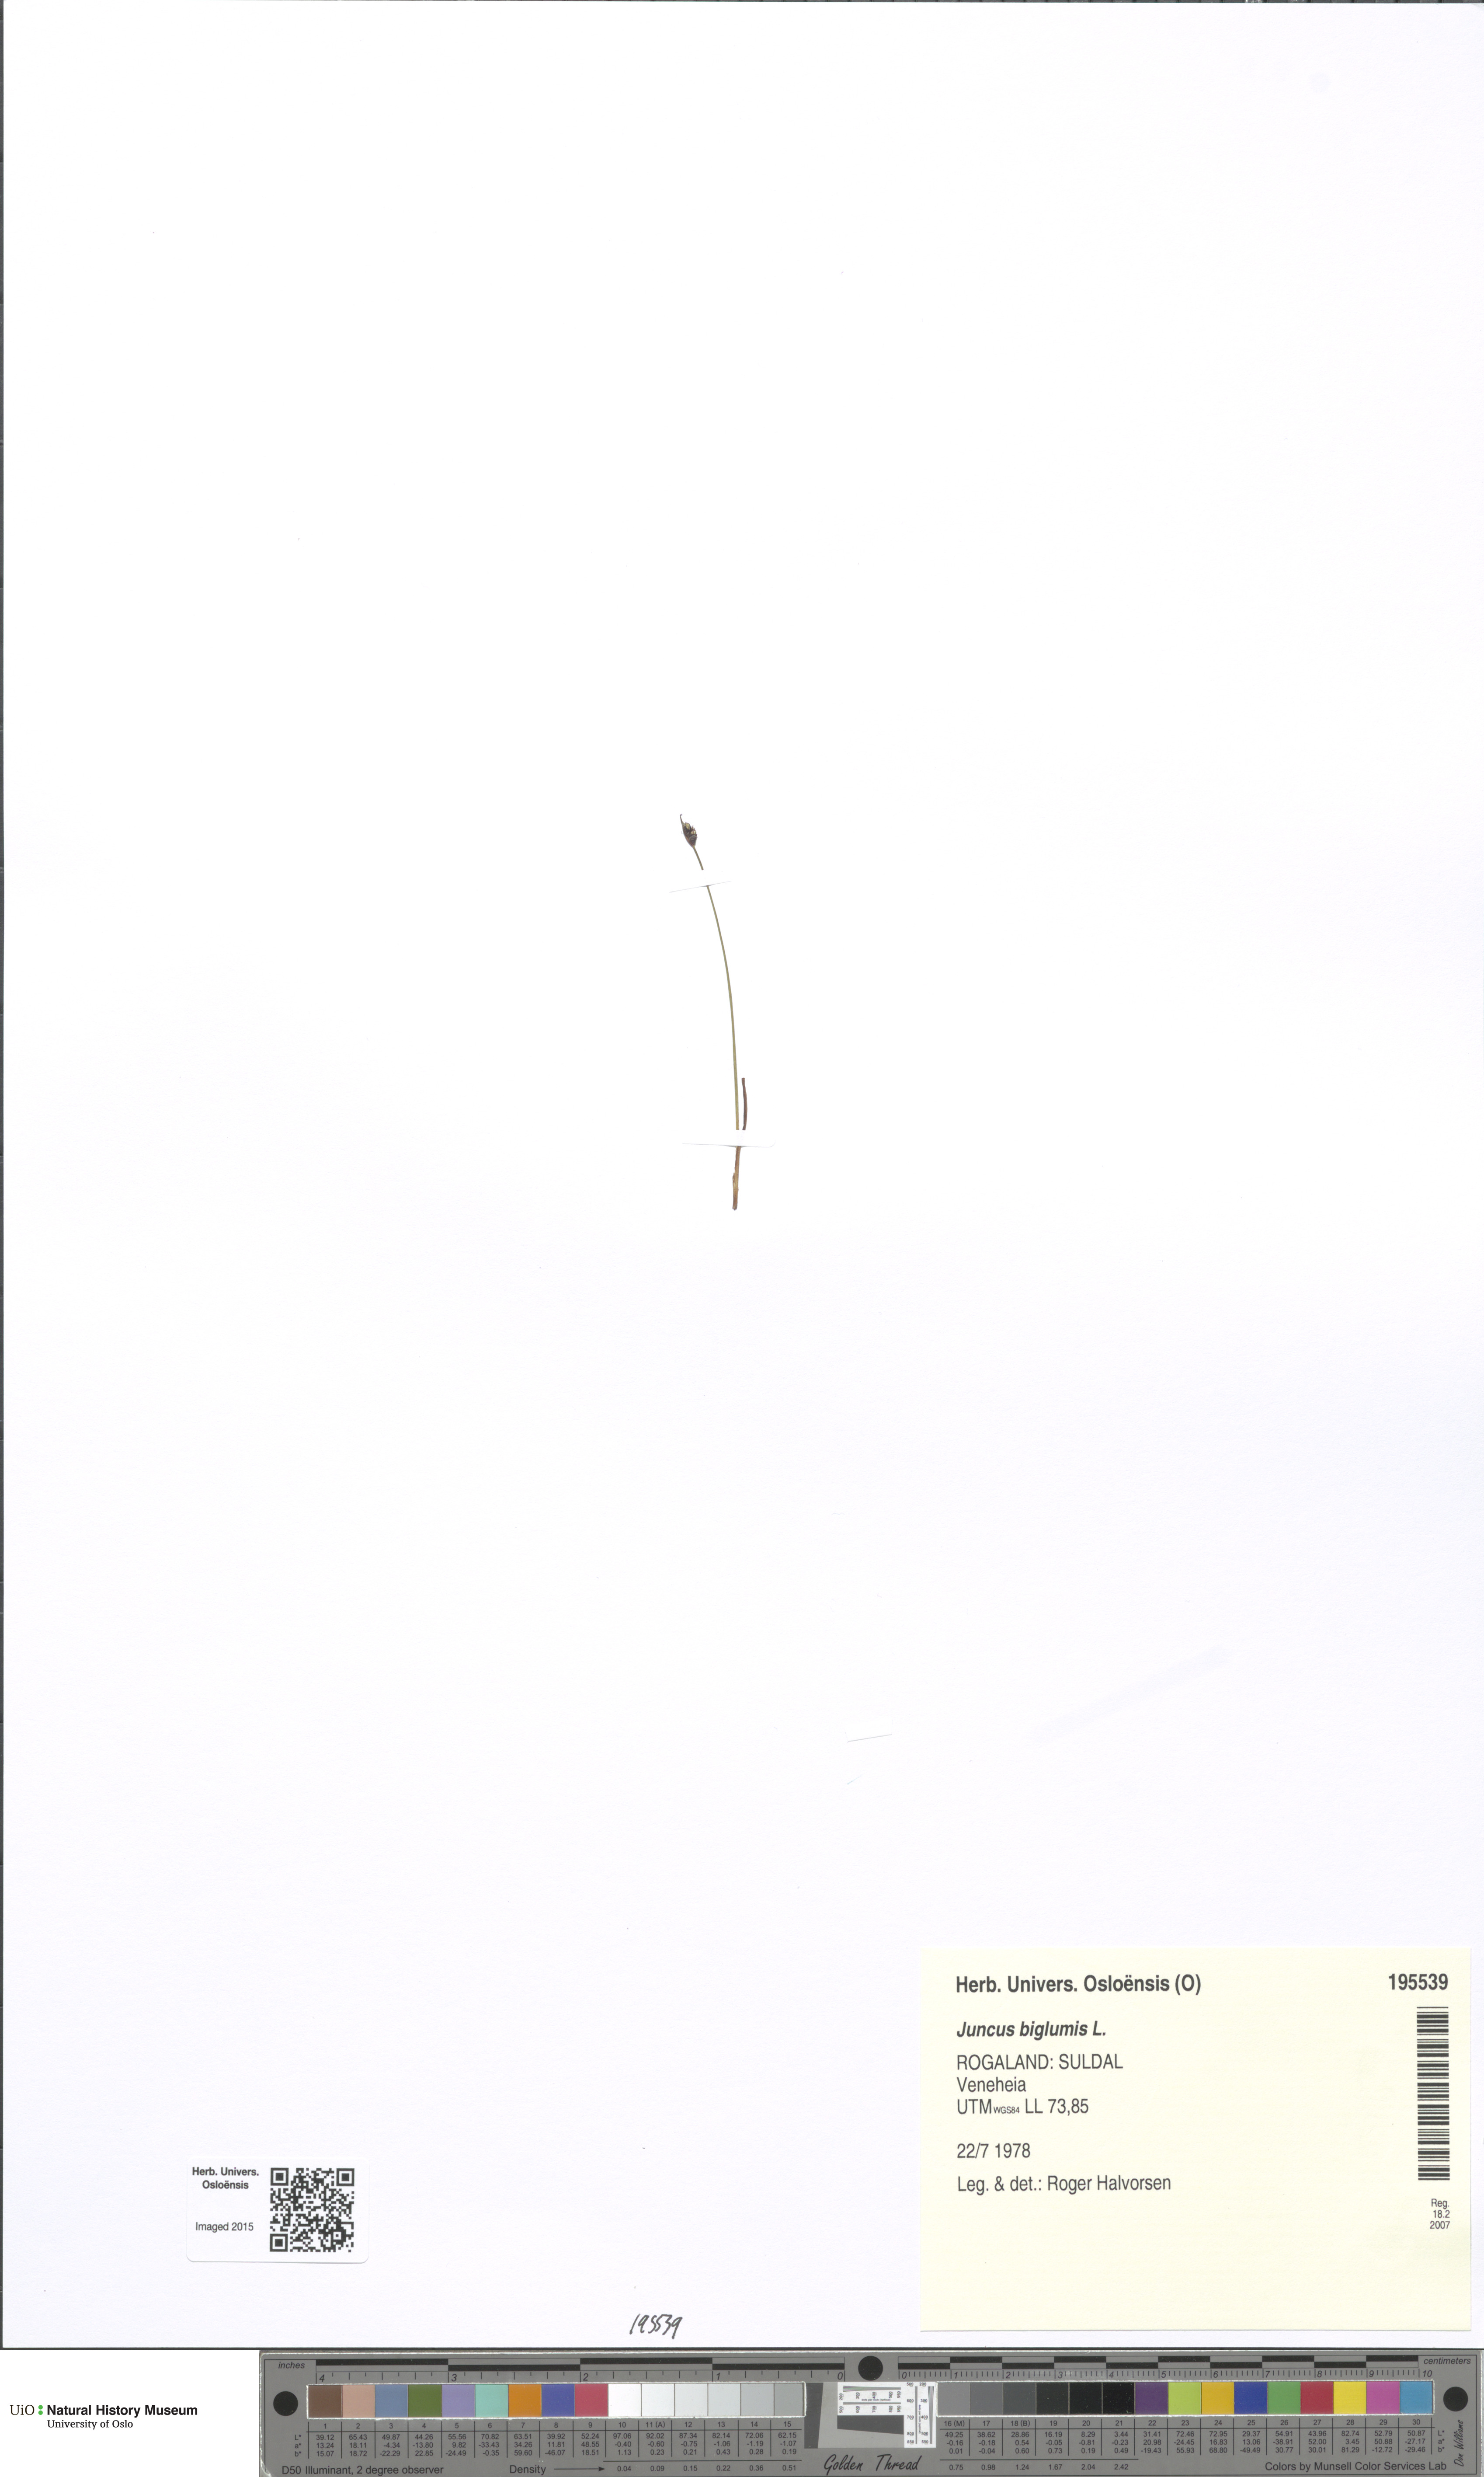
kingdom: Plantae
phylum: Tracheophyta
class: Liliopsida
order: Poales
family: Juncaceae
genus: Juncus
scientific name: Juncus biglumis
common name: Two-flowered rush
